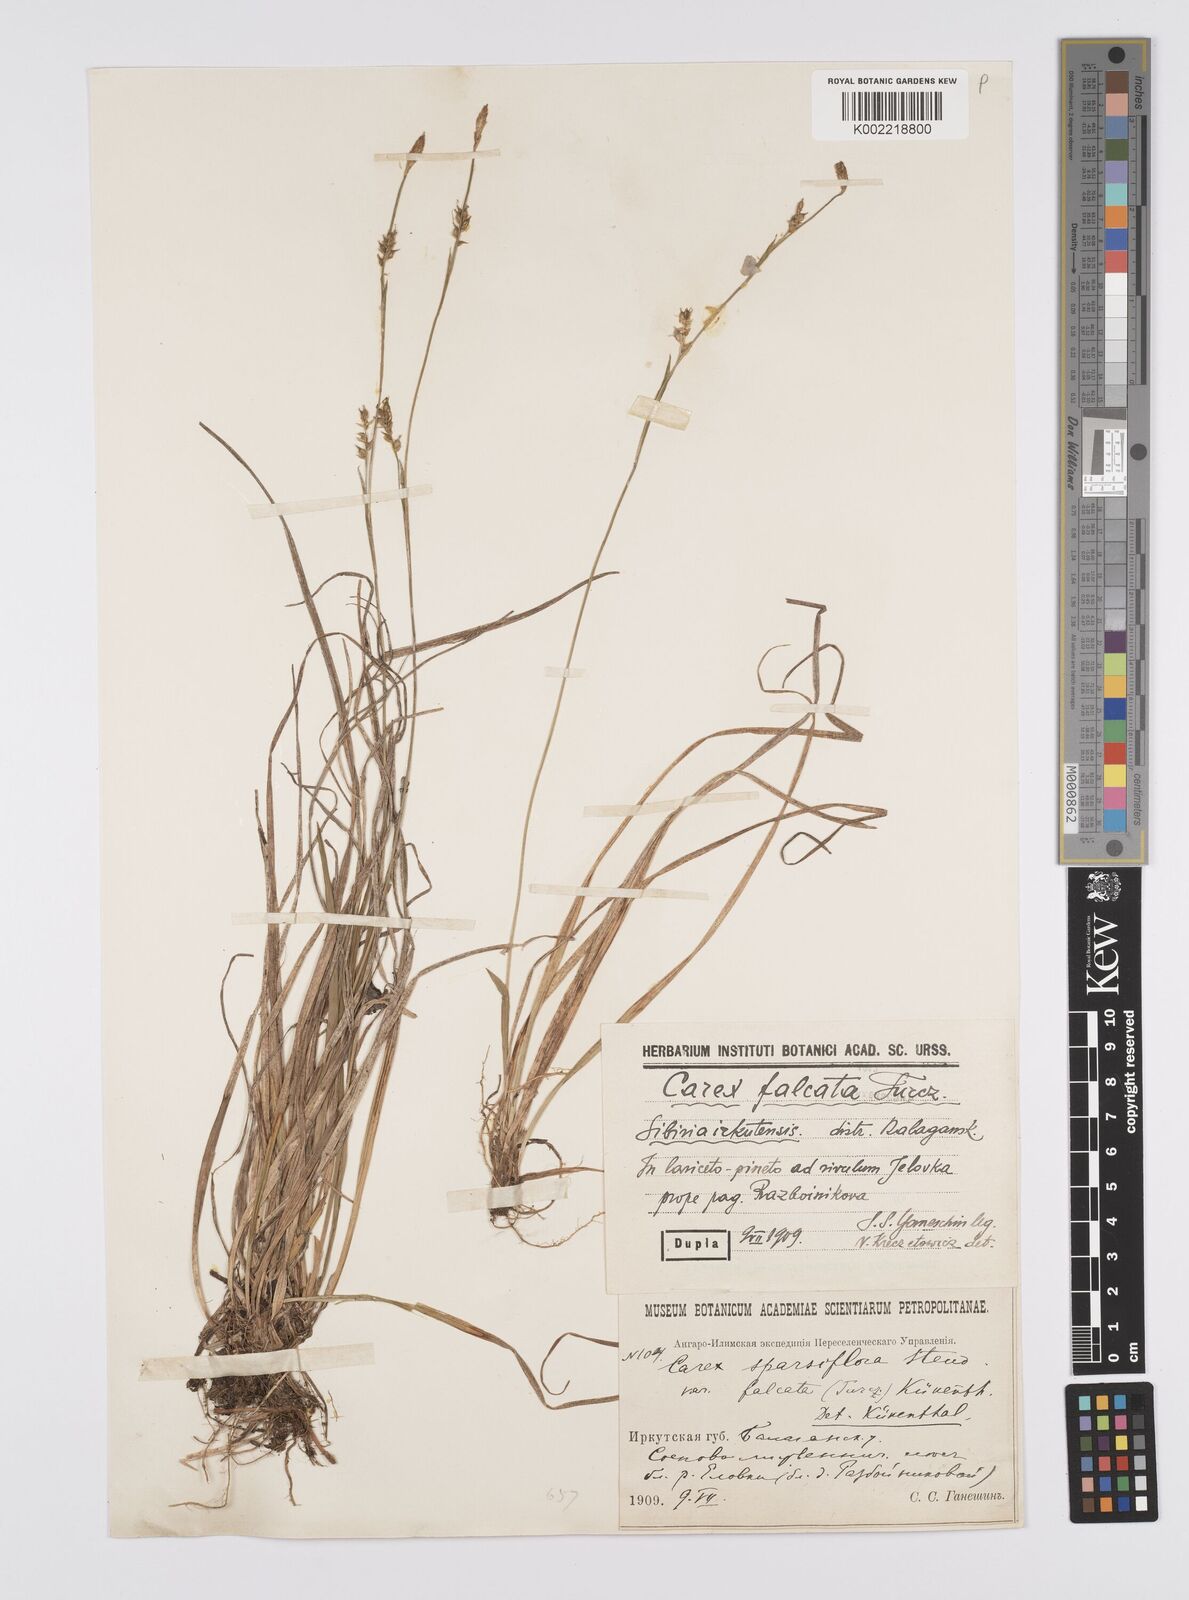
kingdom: Plantae
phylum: Tracheophyta
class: Liliopsida
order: Poales
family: Cyperaceae
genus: Carex
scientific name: Carex pilosa
